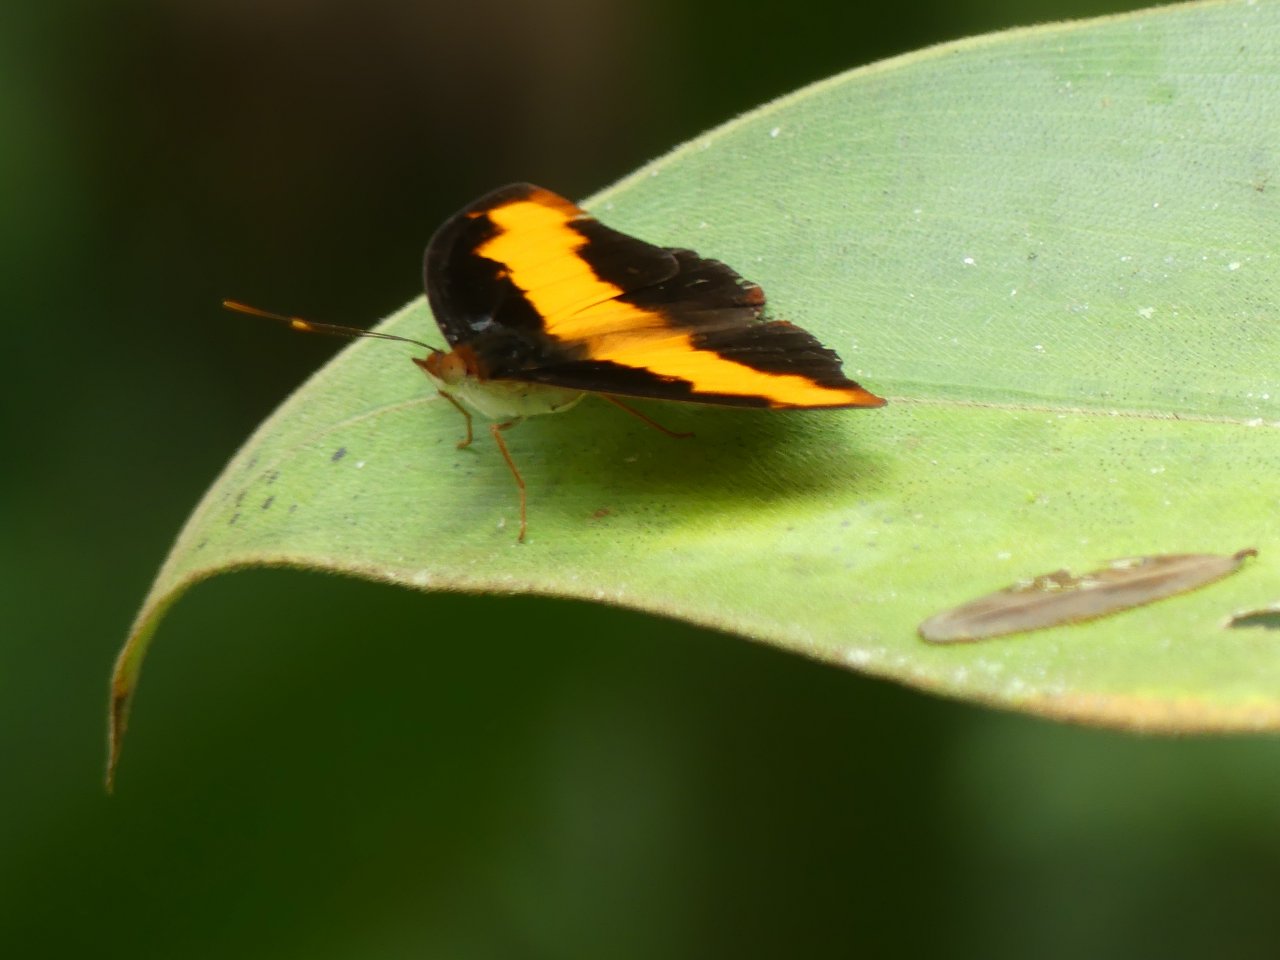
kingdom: Animalia
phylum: Arthropoda
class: Insecta
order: Lepidoptera
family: Nymphalidae
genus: Catonephele
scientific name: Catonephele mexicana
